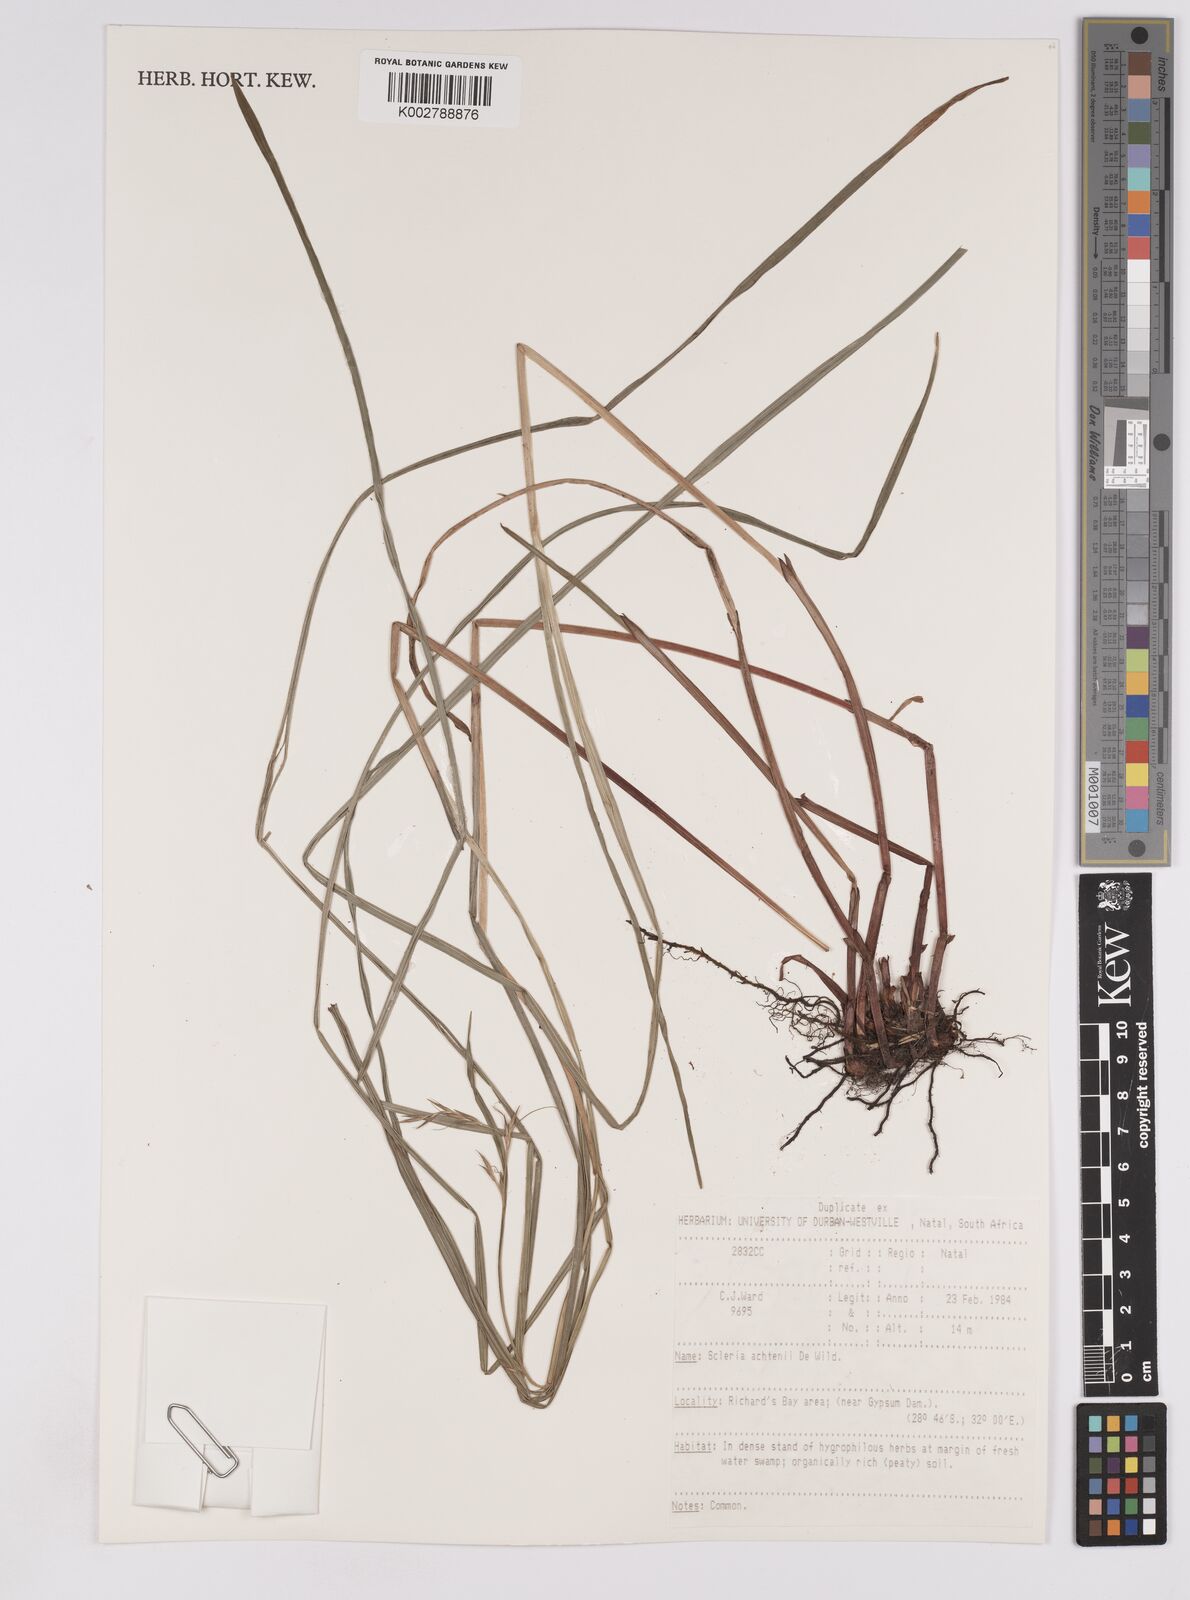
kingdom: Plantae
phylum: Tracheophyta
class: Liliopsida
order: Poales
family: Cyperaceae
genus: Scleria
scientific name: Scleria achtenii
